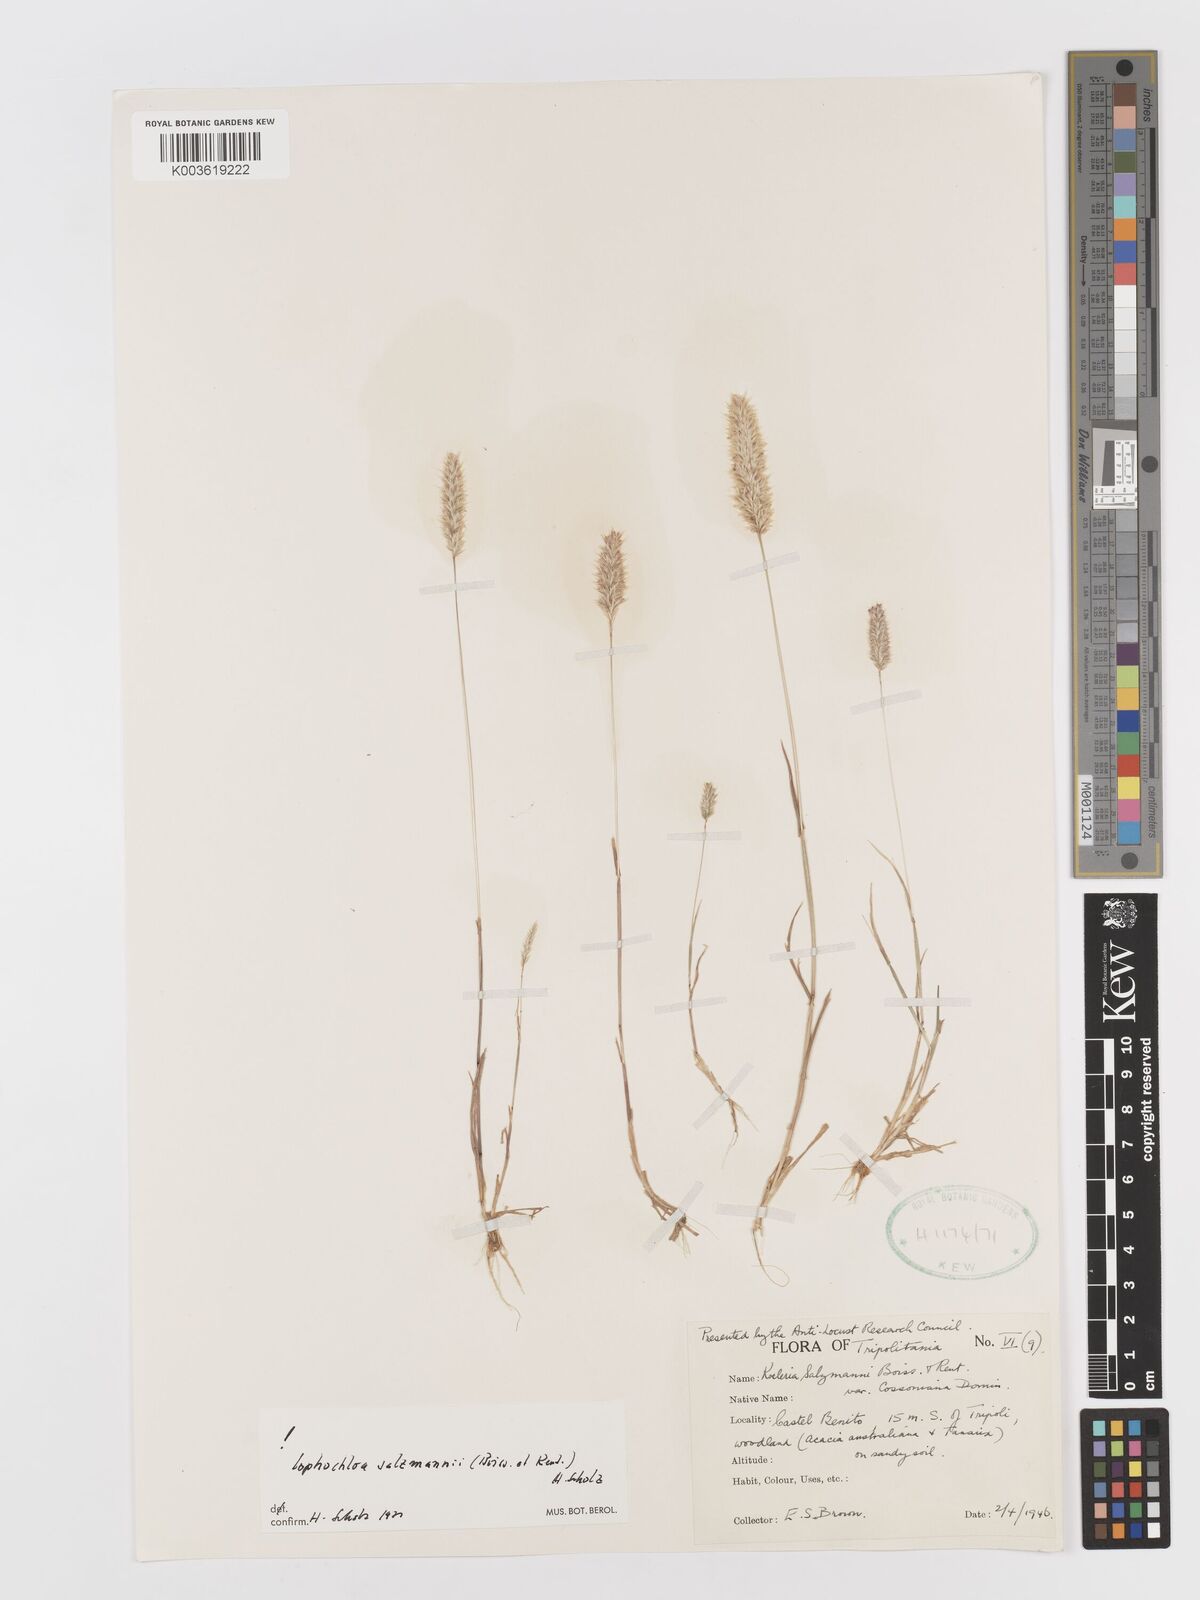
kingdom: Plantae
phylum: Tracheophyta
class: Liliopsida
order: Poales
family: Poaceae
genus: Rostraria
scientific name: Rostraria salzmannii
